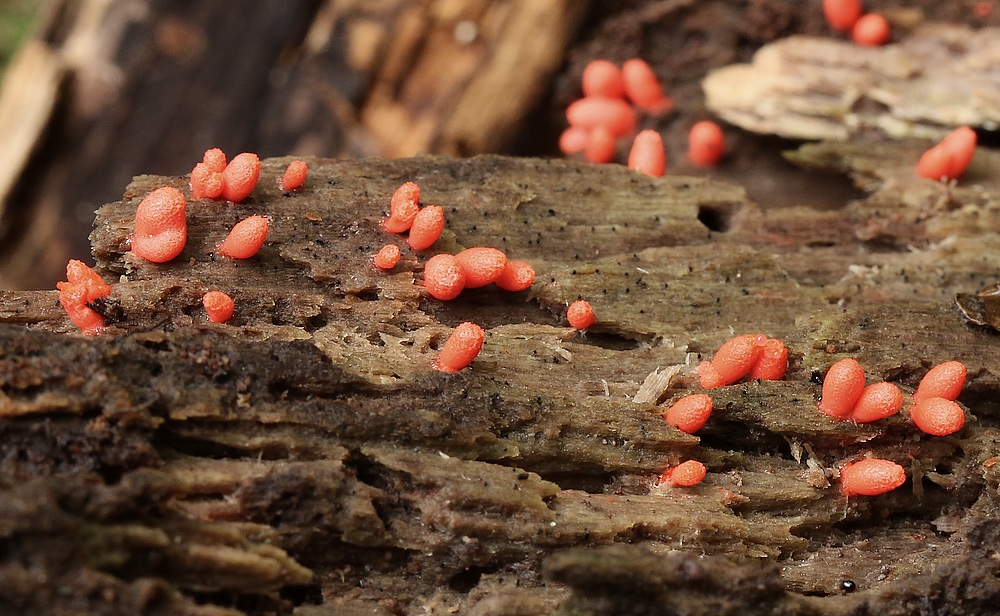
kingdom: Protozoa
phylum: Mycetozoa
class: Myxomycetes
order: Cribrariales
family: Tubiferaceae
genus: Lycogala
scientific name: Lycogala conicum
